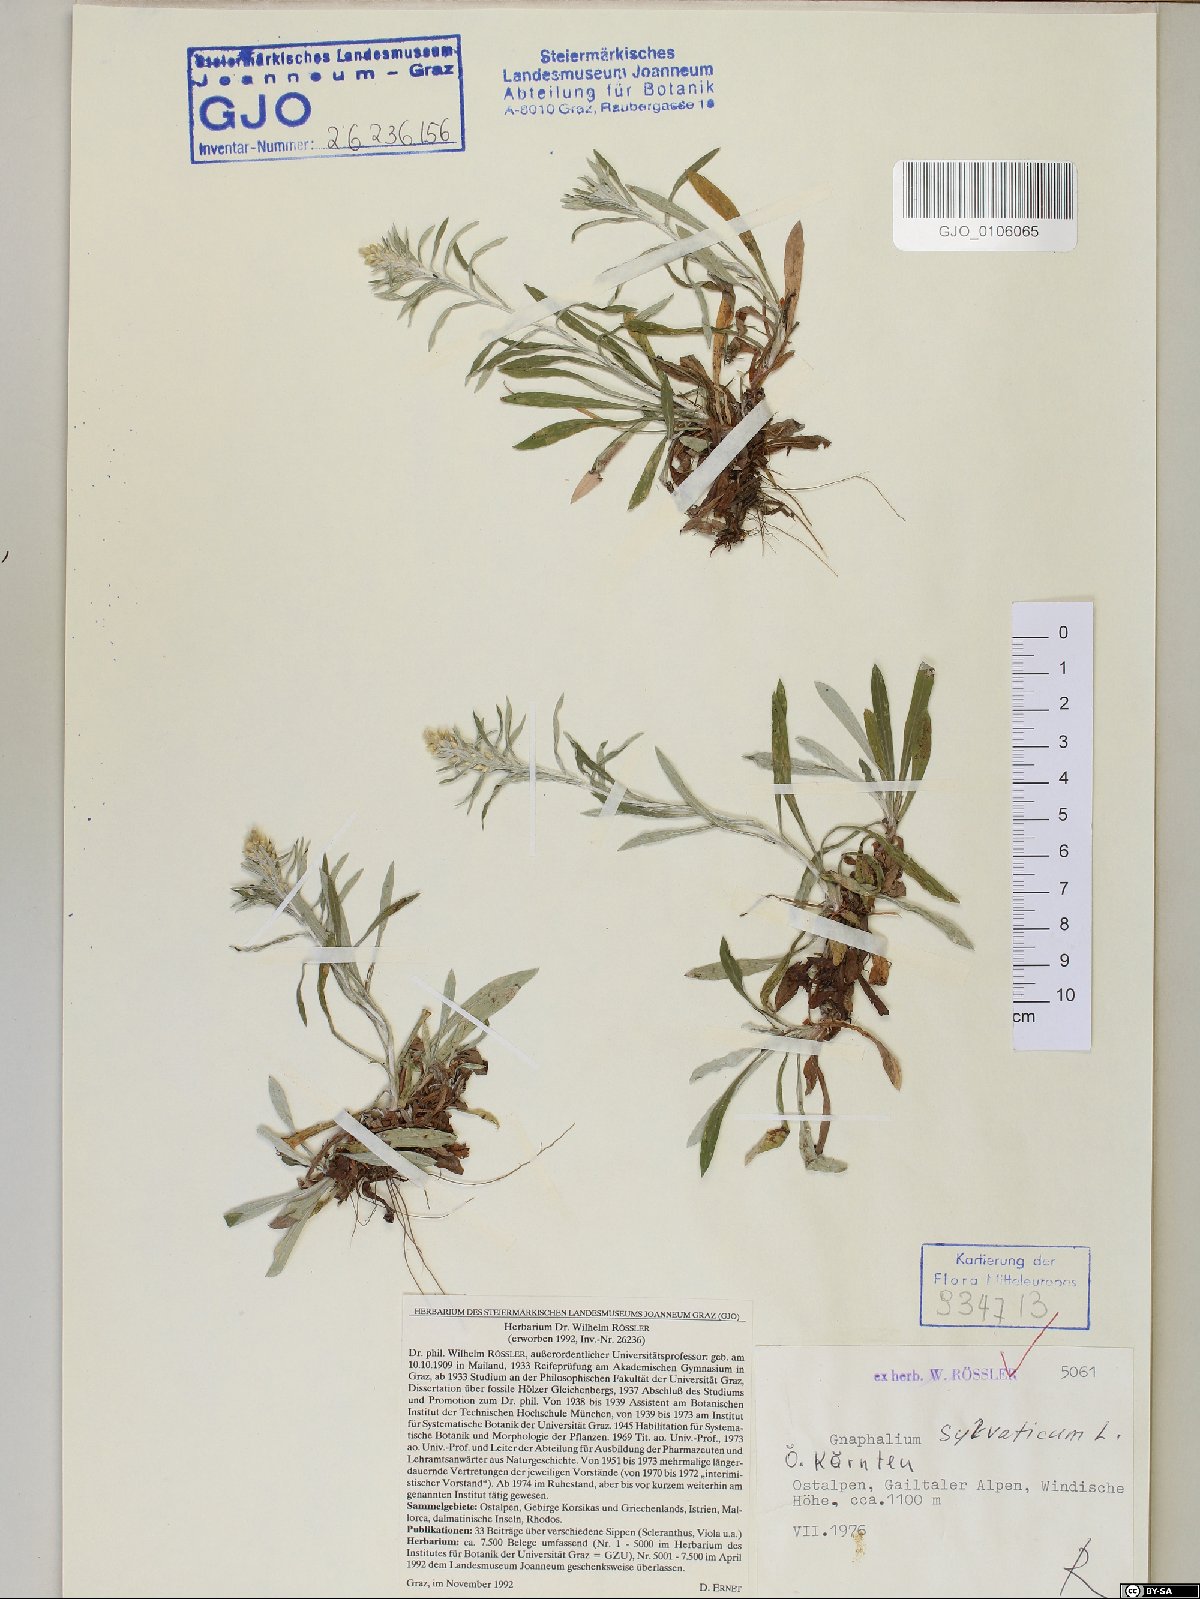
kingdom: Plantae
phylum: Tracheophyta
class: Magnoliopsida
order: Asterales
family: Asteraceae
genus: Omalotheca
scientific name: Omalotheca sylvatica
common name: Heath cudweed
